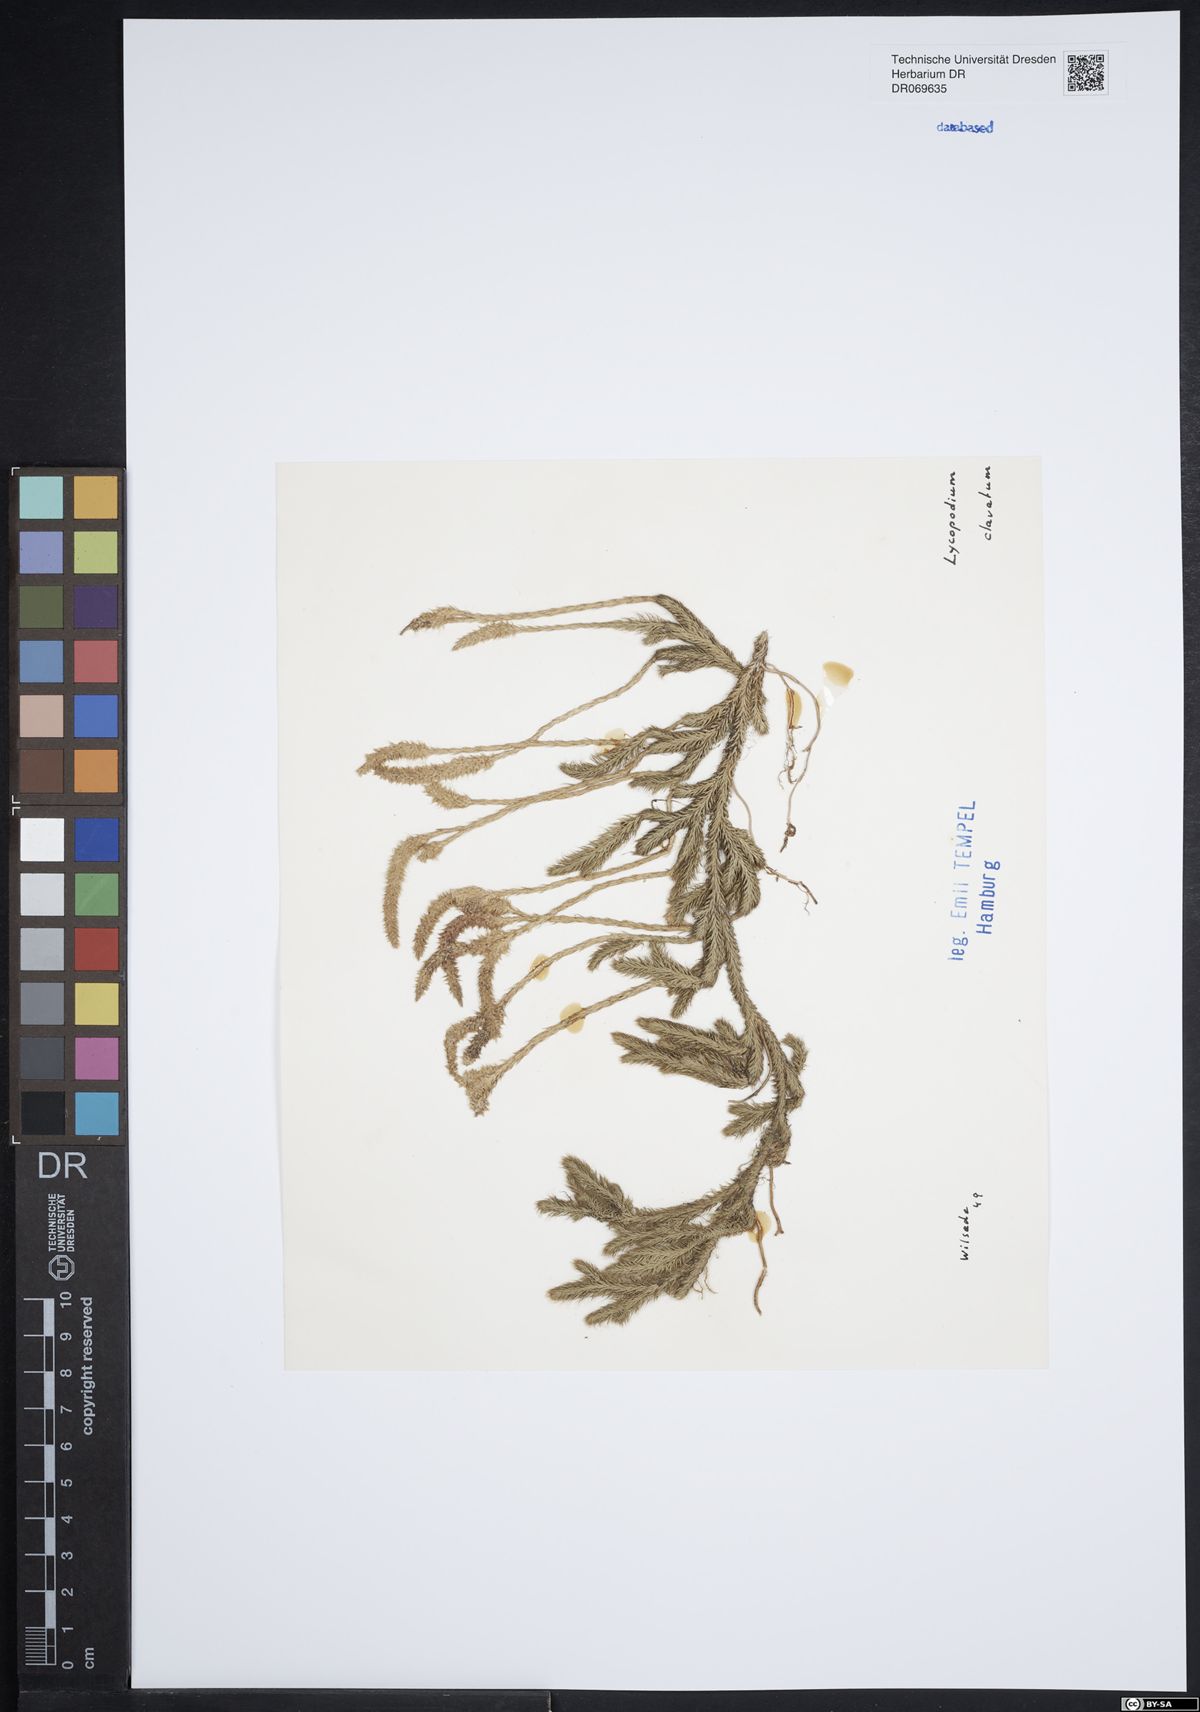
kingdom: Plantae
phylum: Tracheophyta
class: Lycopodiopsida
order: Lycopodiales
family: Lycopodiaceae
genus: Lycopodium
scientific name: Lycopodium clavatum
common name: Stag's-horn clubmoss
